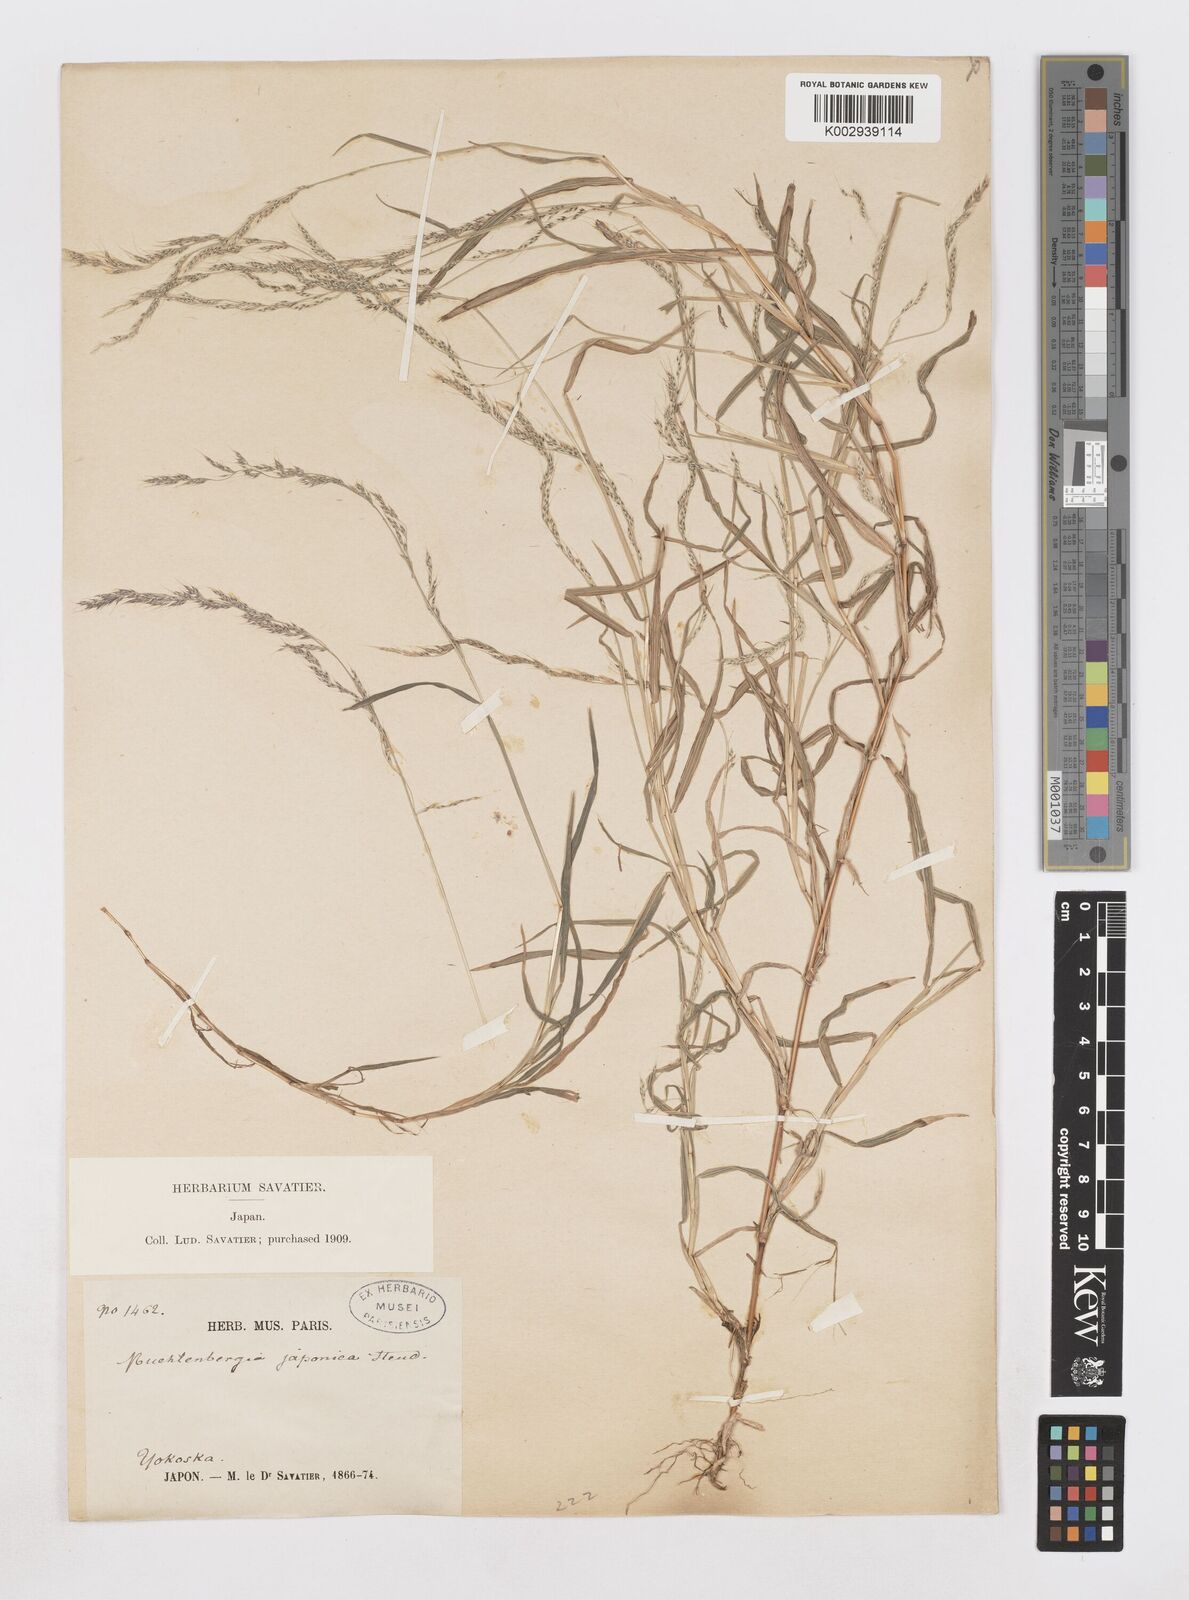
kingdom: Plantae
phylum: Tracheophyta
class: Liliopsida
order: Poales
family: Poaceae
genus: Muhlenbergia
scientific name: Muhlenbergia japonica
